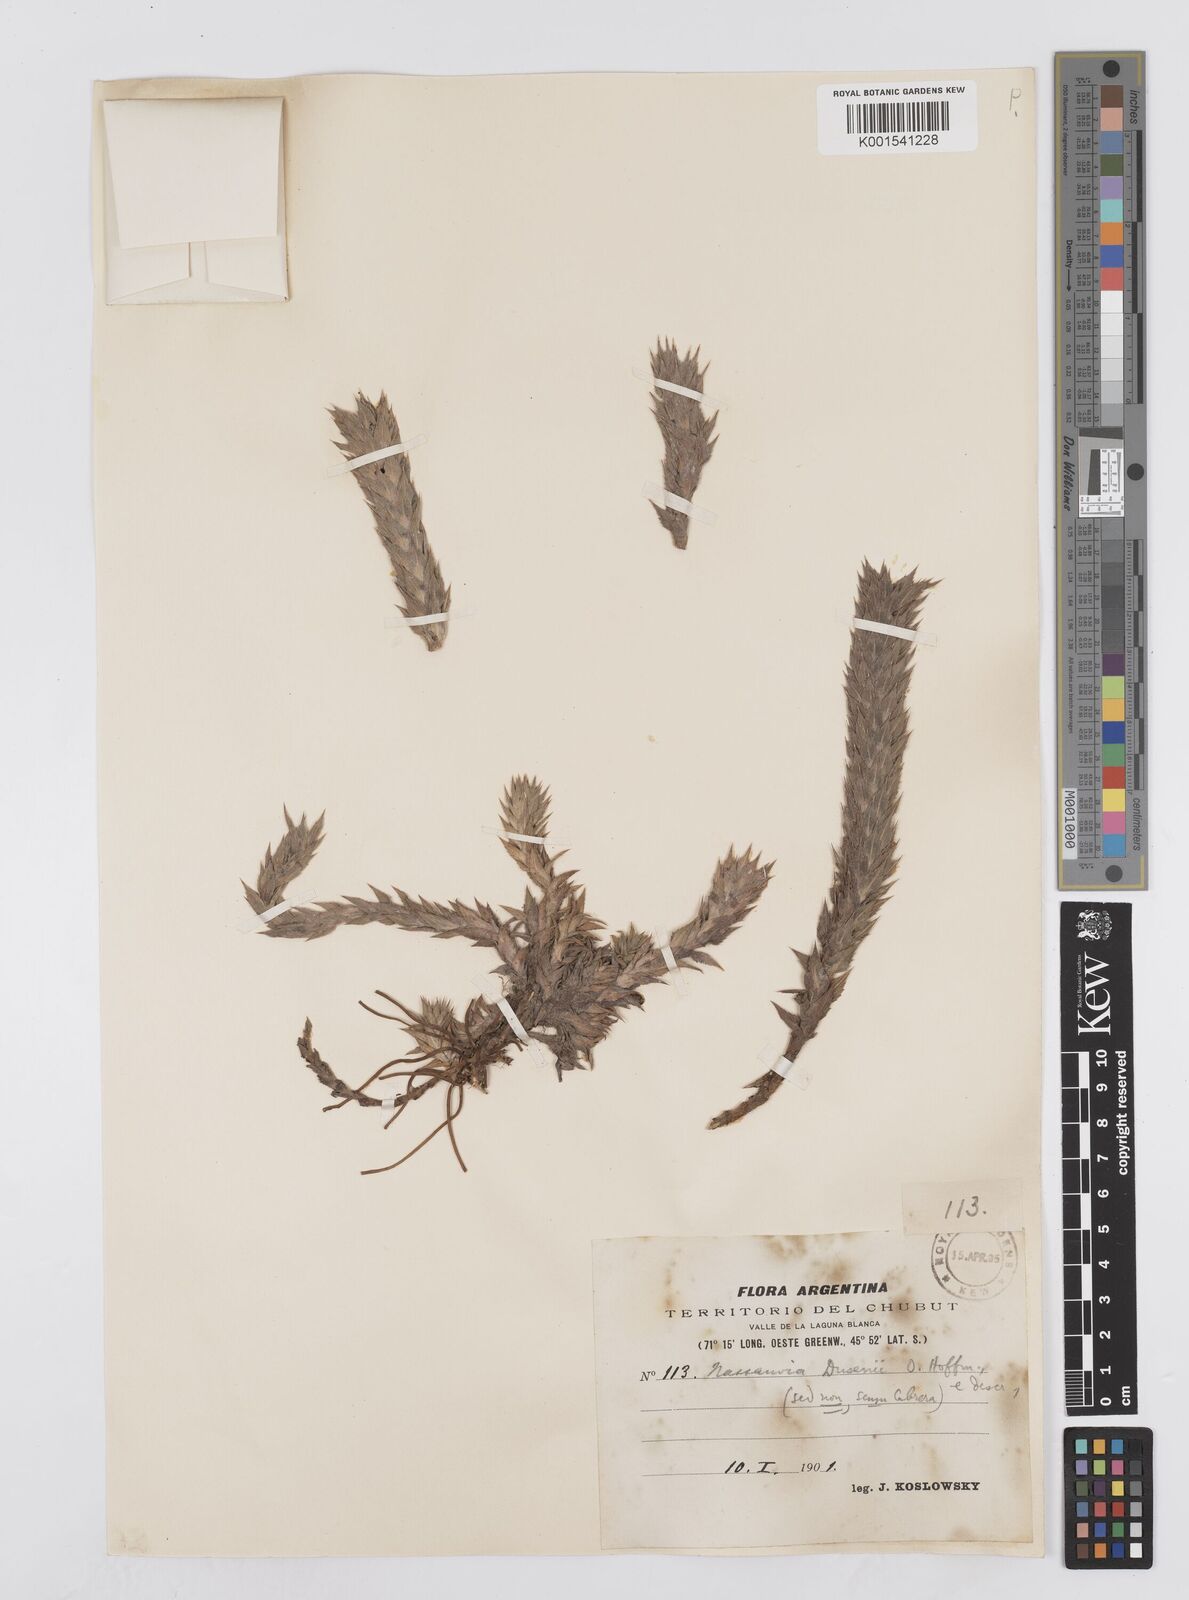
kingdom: Plantae
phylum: Tracheophyta
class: Magnoliopsida
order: Asterales
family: Asteraceae
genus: Nassauvia
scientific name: Nassauvia dusenii
